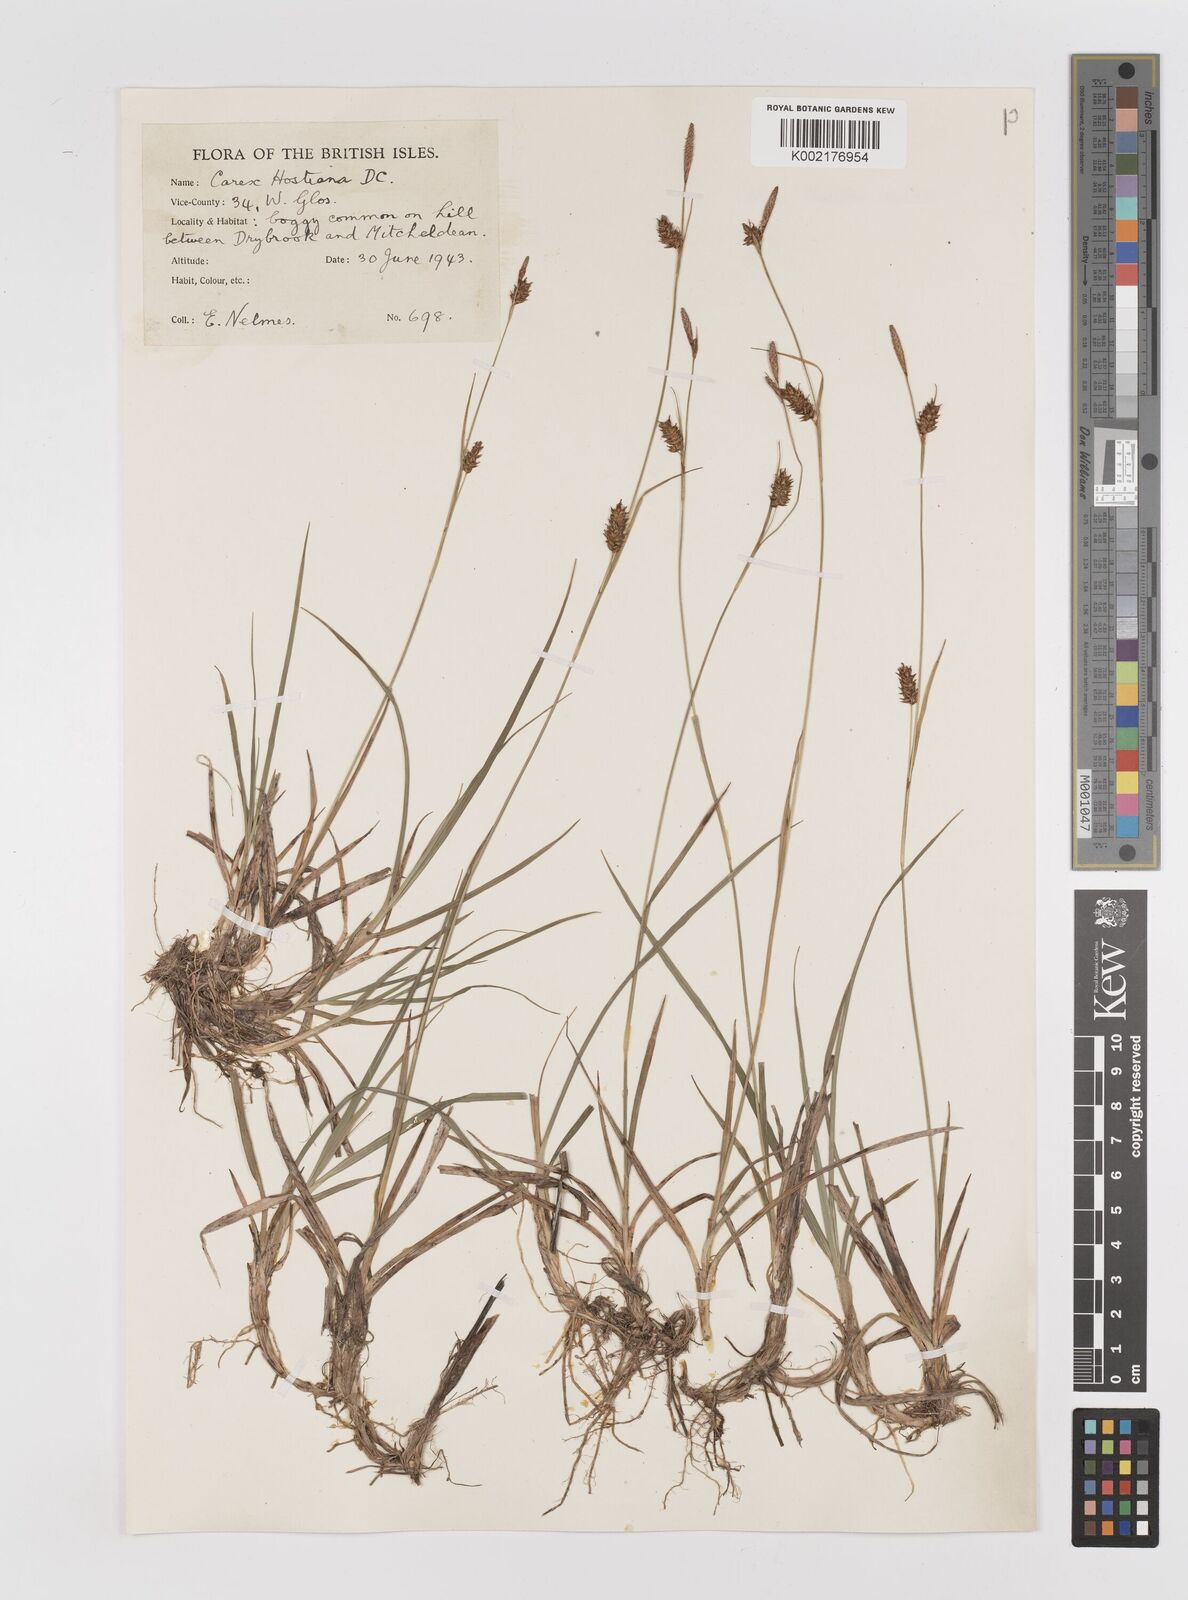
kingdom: Plantae
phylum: Tracheophyta
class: Liliopsida
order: Poales
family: Cyperaceae
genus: Carex
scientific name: Carex hostiana
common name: Tawny sedge
